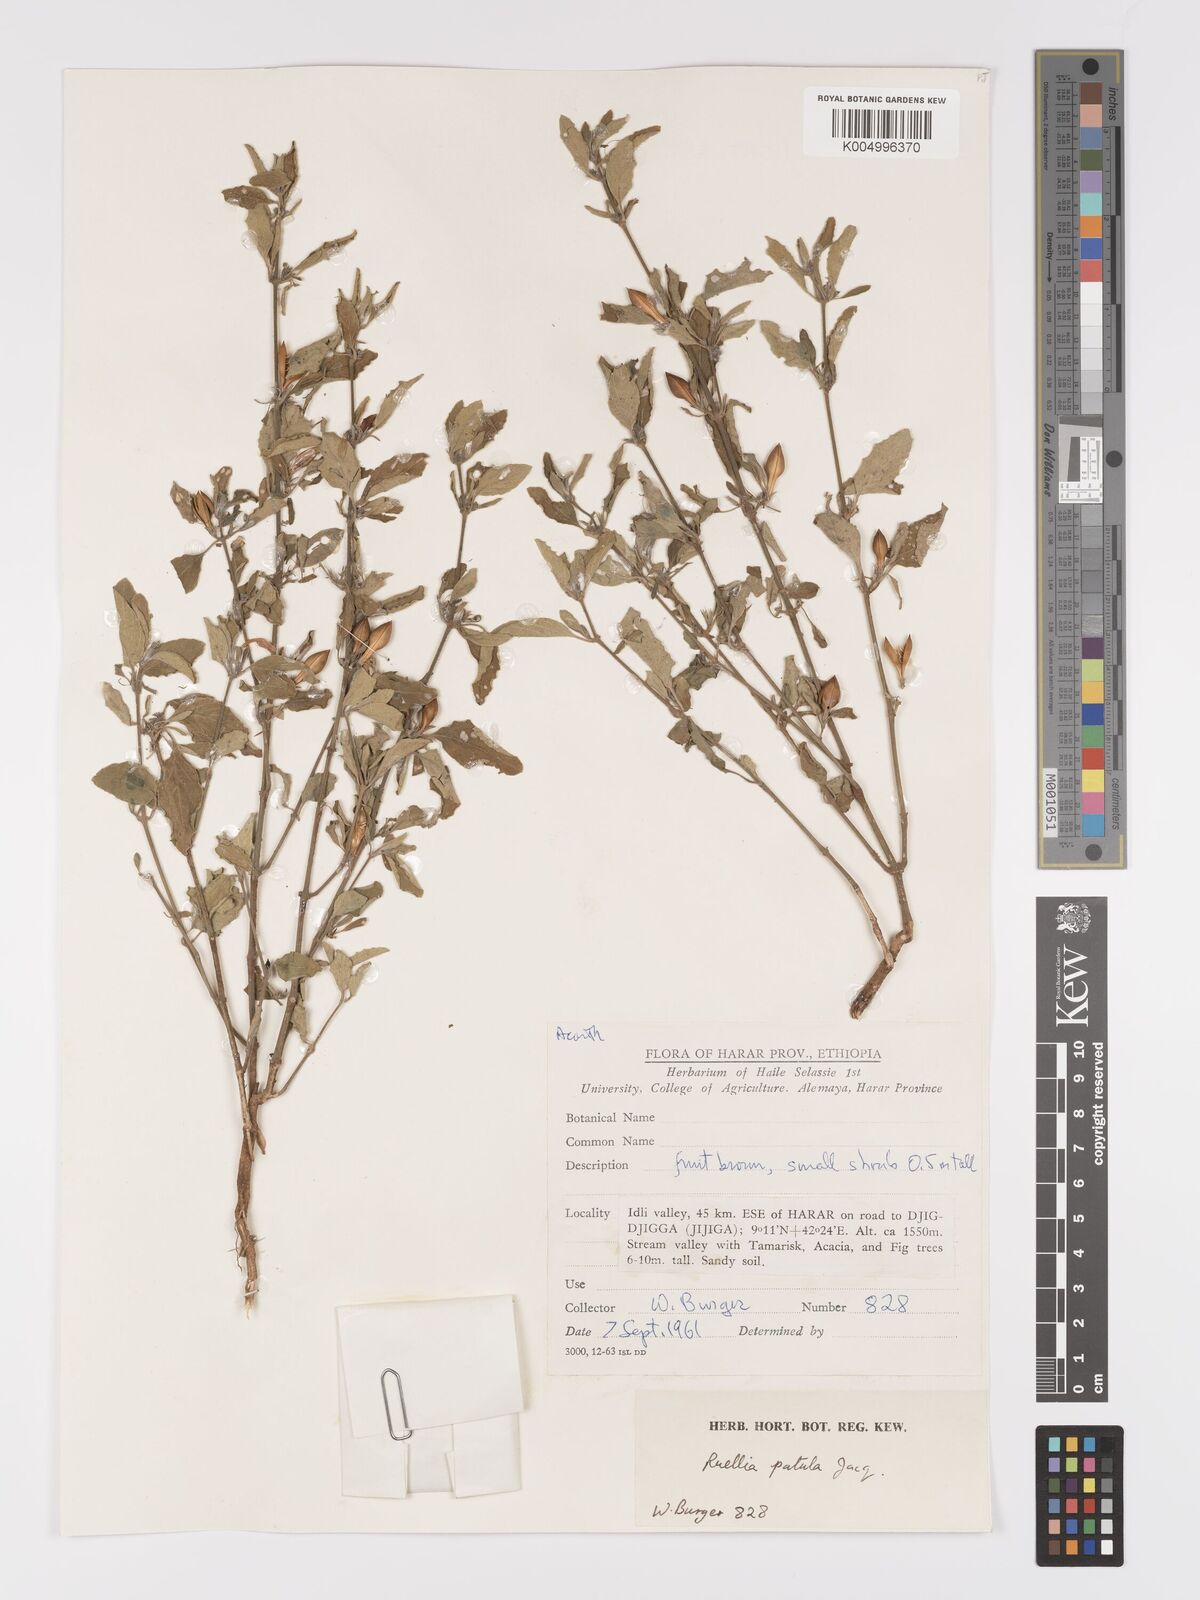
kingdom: Plantae
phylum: Tracheophyta
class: Magnoliopsida
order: Lamiales
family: Acanthaceae
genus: Ruellia
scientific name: Ruellia patula
